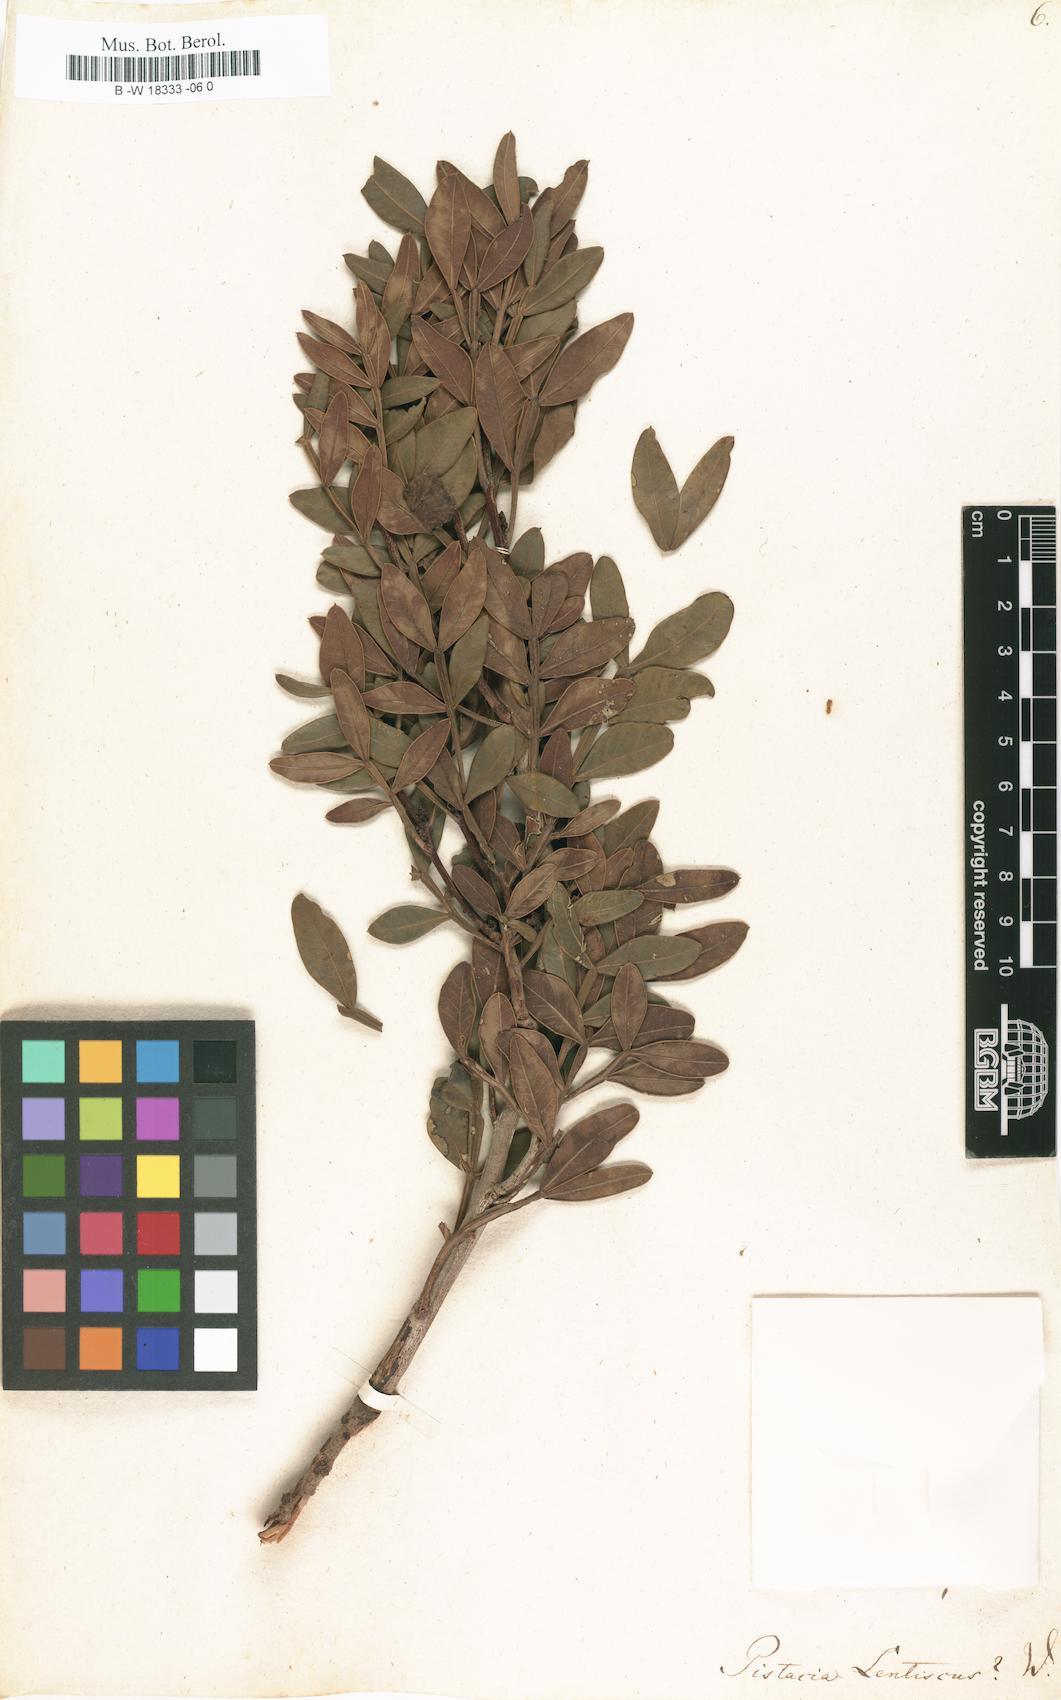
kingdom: Plantae
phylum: Tracheophyta
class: Magnoliopsida
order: Sapindales
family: Anacardiaceae
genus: Pistacia
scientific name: Pistacia lentiscus
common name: Lentisk
